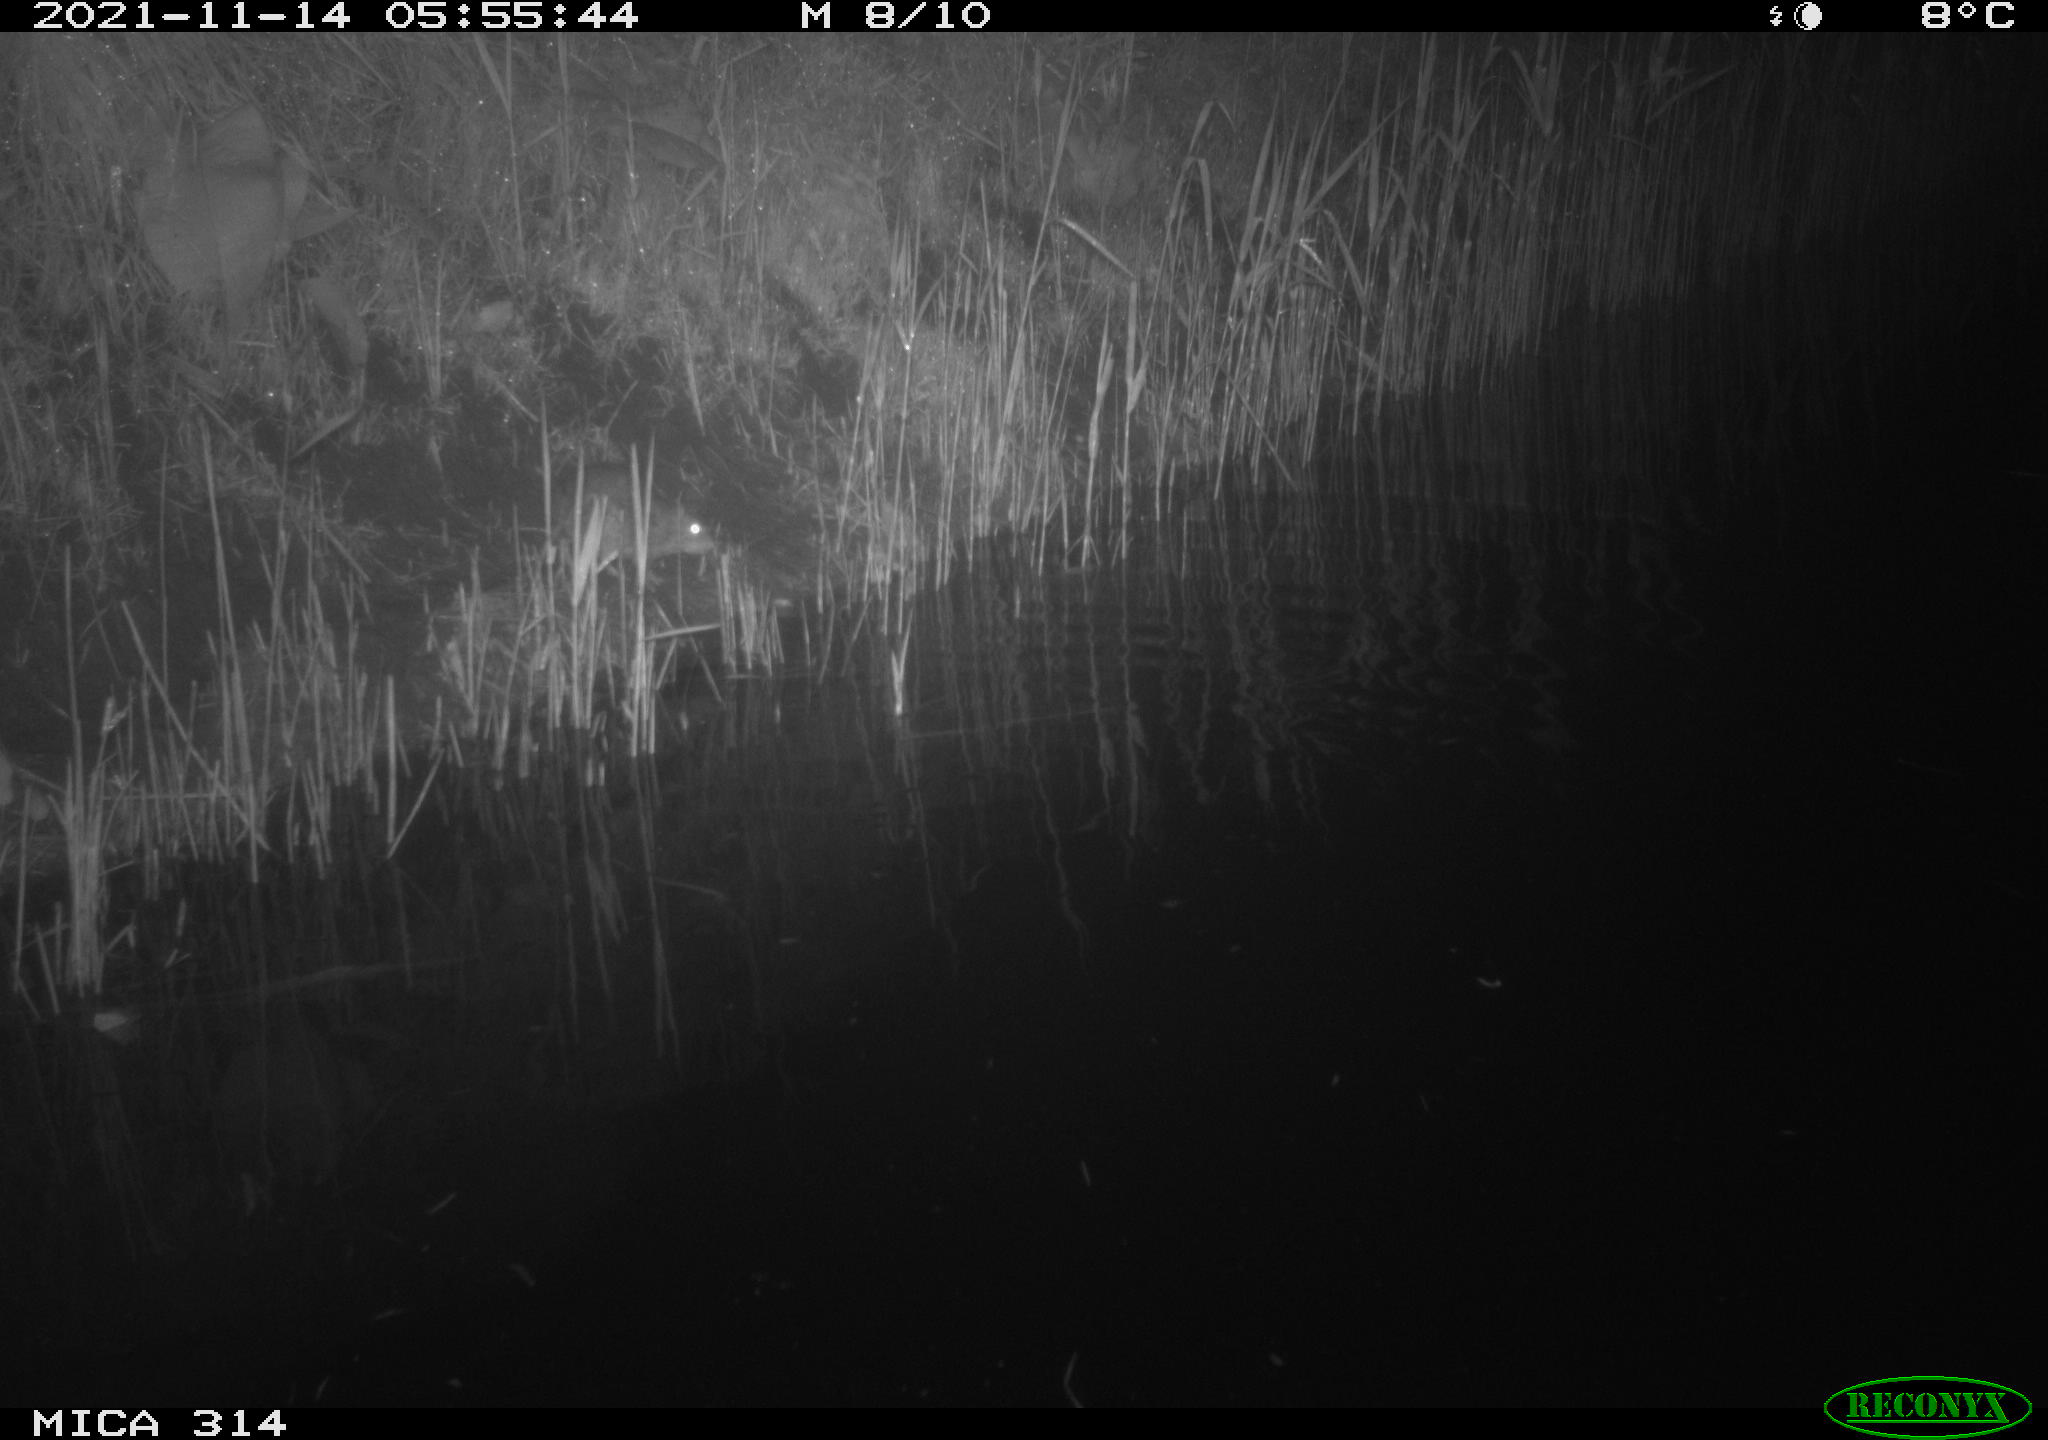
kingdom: Animalia
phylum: Chordata
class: Mammalia
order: Rodentia
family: Muridae
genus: Rattus
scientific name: Rattus norvegicus
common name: Brown rat
